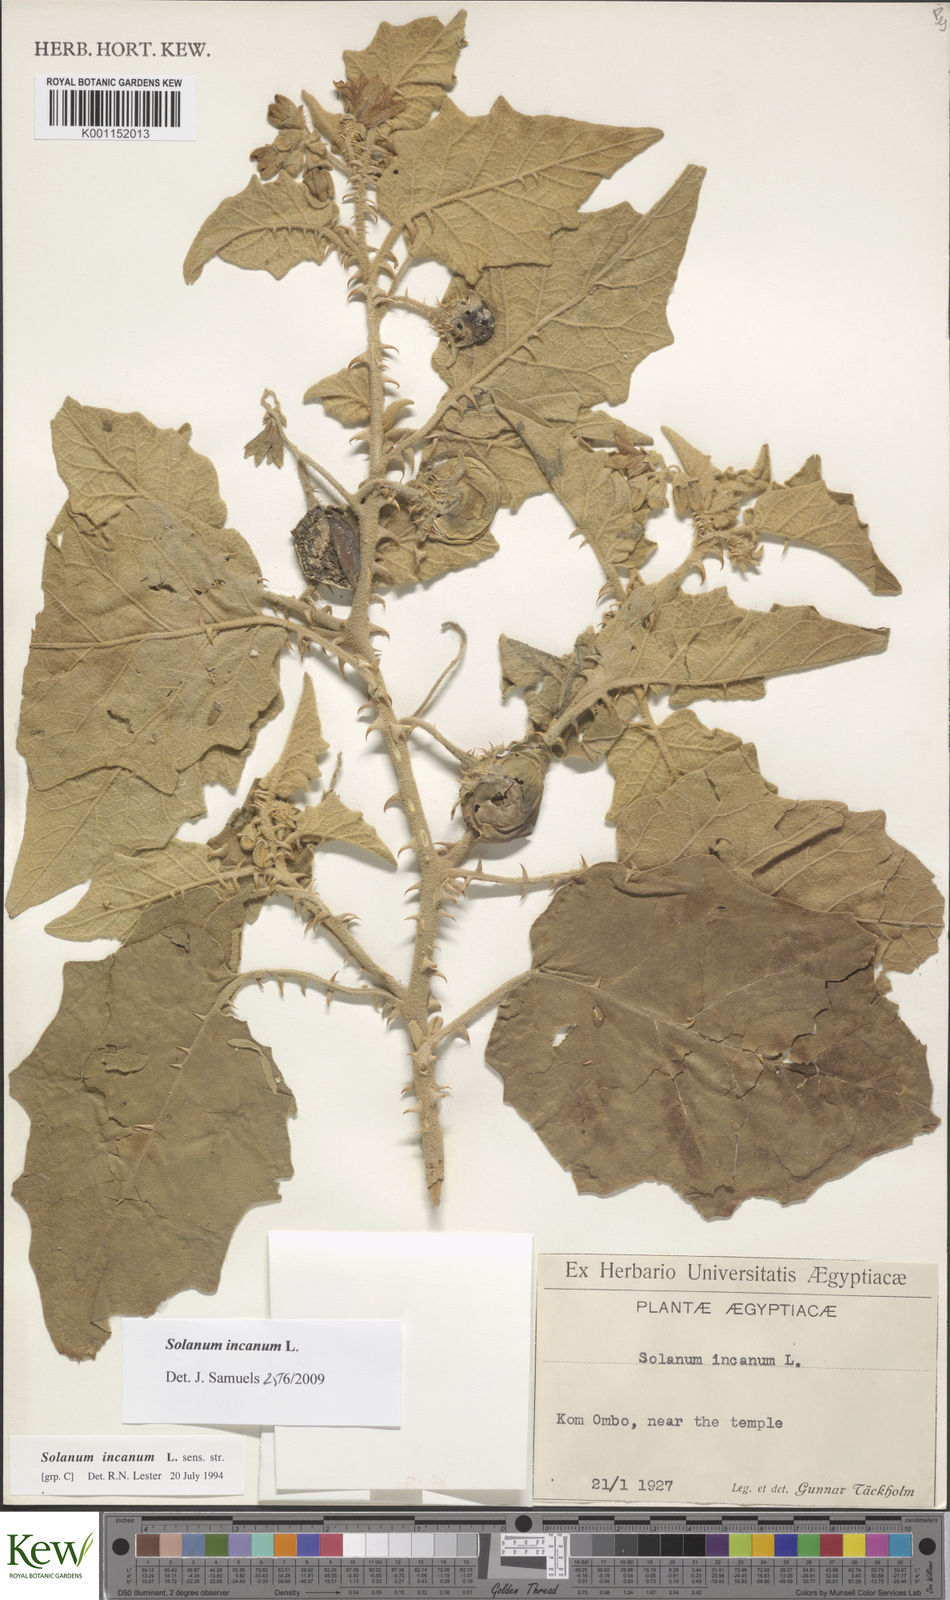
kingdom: Plantae
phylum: Tracheophyta
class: Magnoliopsida
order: Solanales
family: Solanaceae
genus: Solanum
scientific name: Solanum incanum
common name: Bitter apple
